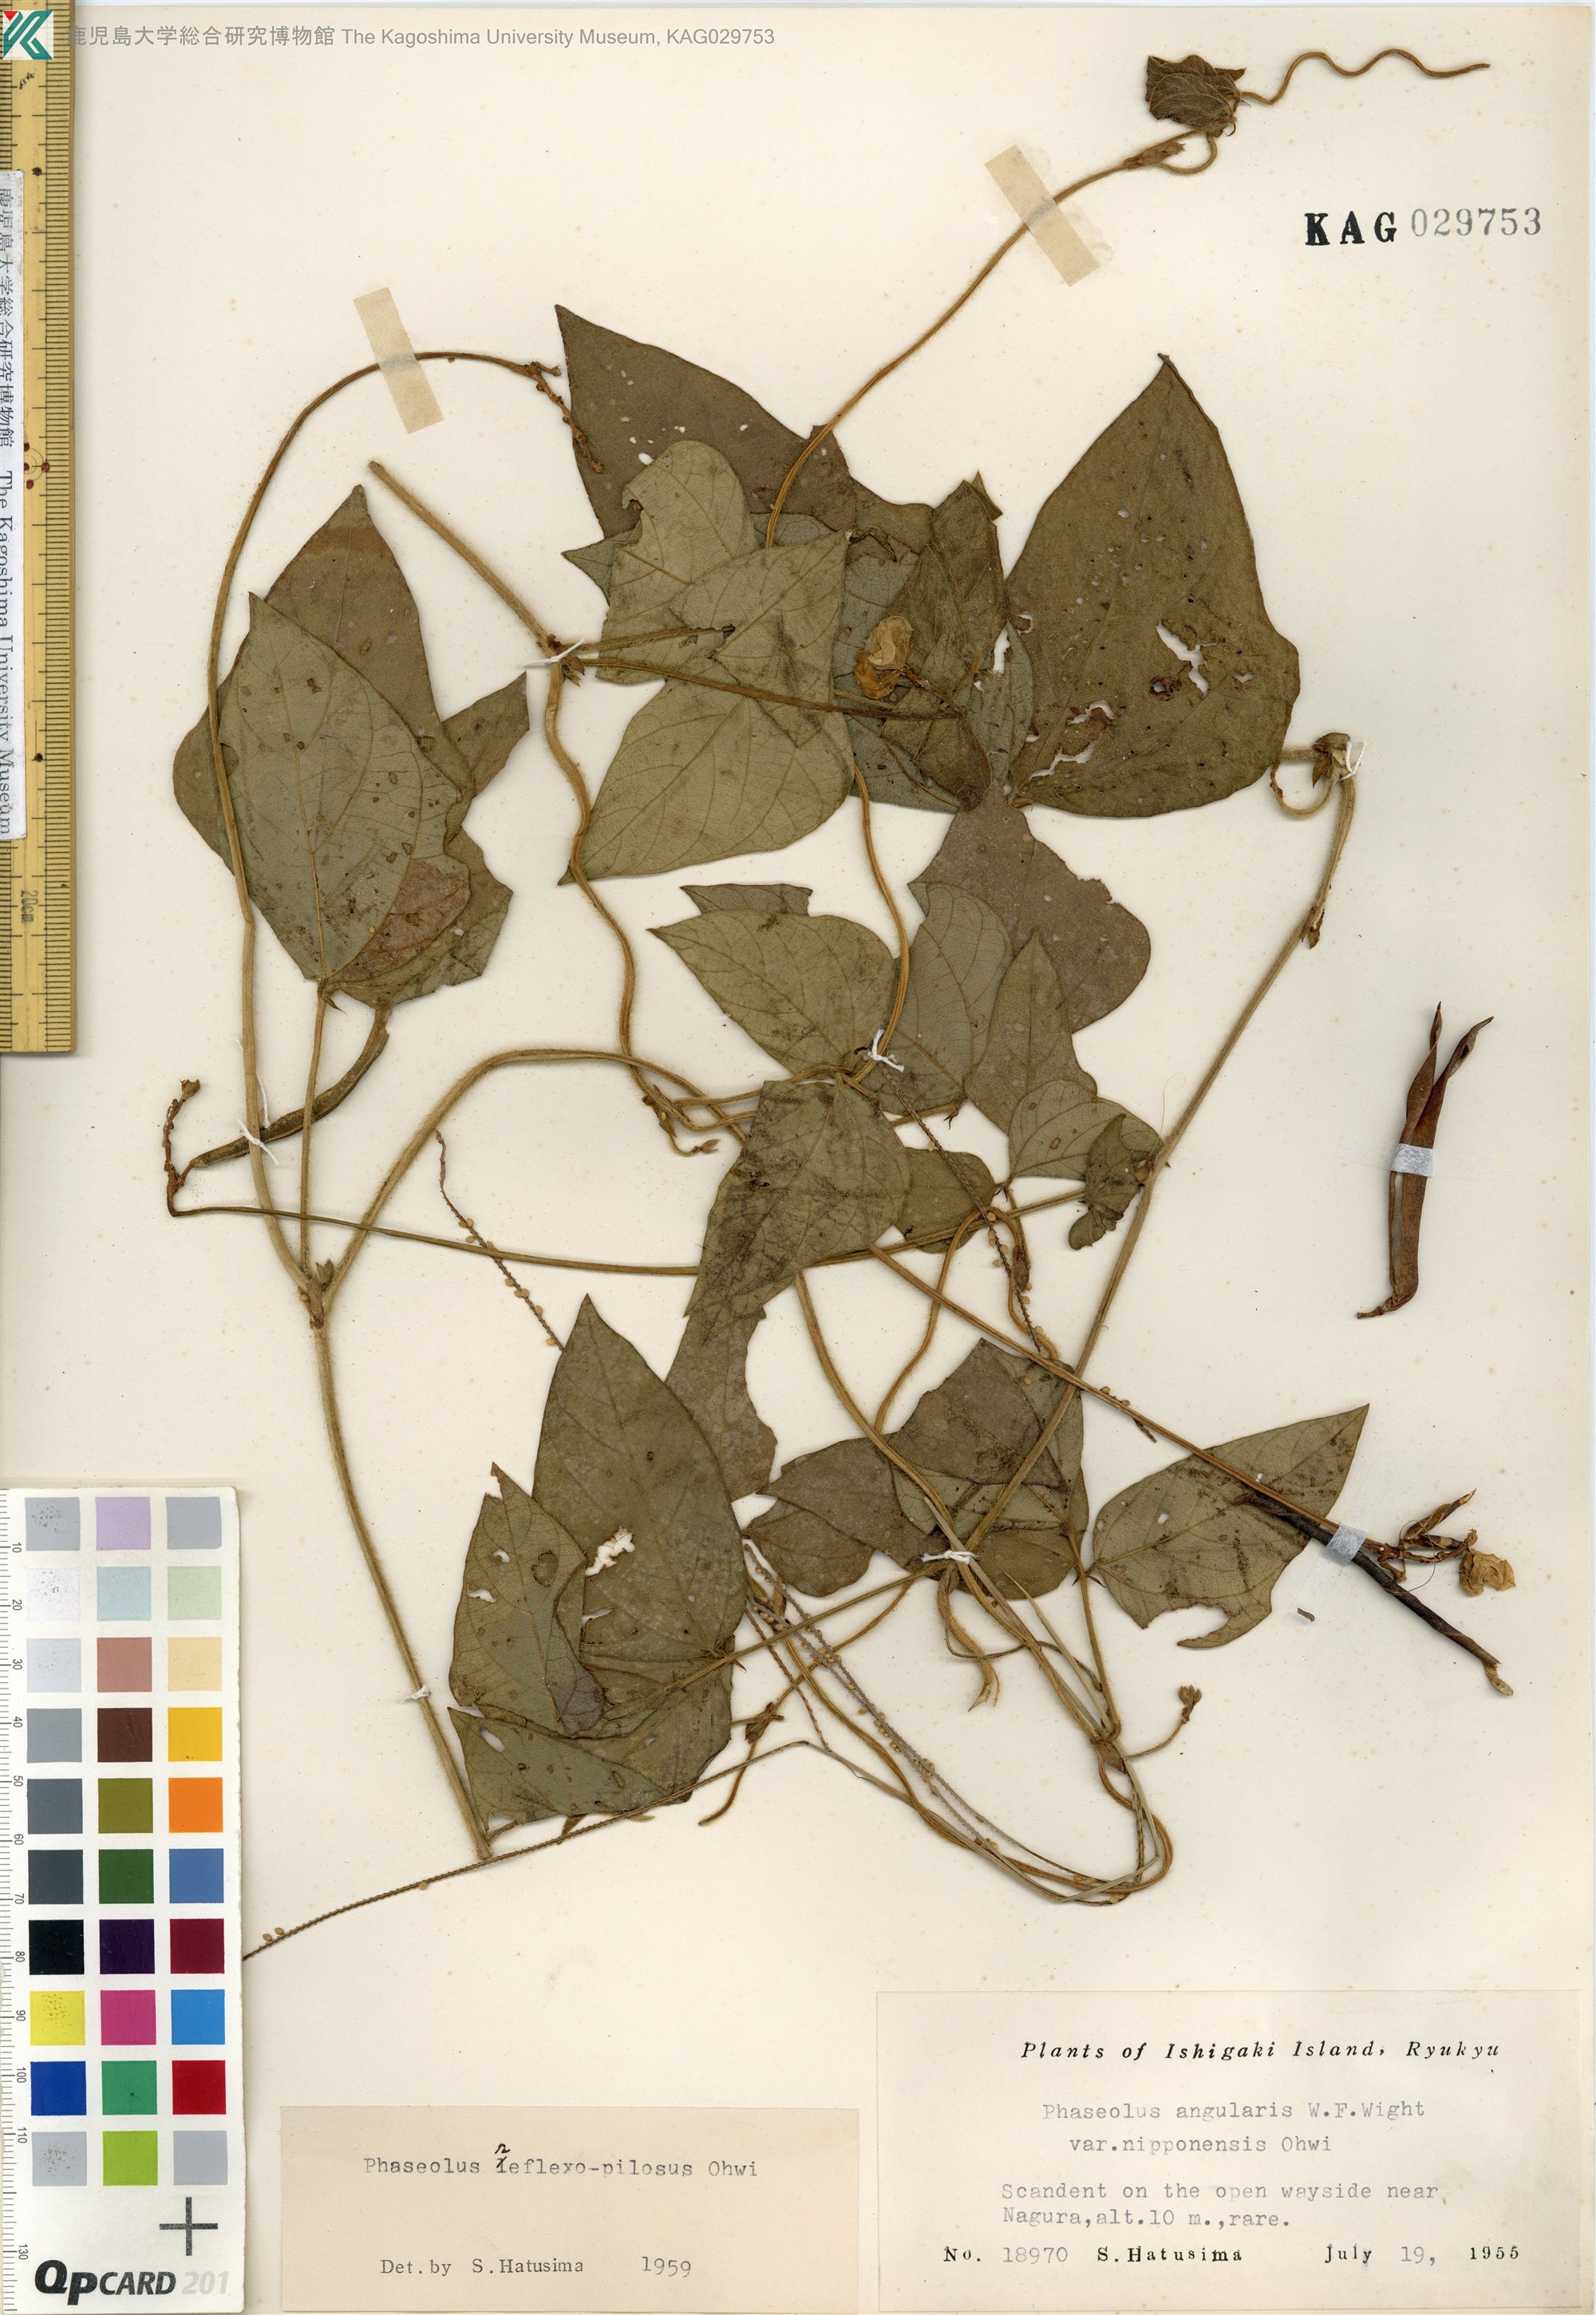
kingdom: Plantae
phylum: Tracheophyta
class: Magnoliopsida
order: Fabales
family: Fabaceae
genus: Vigna
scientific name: Vigna reflexopilosa
